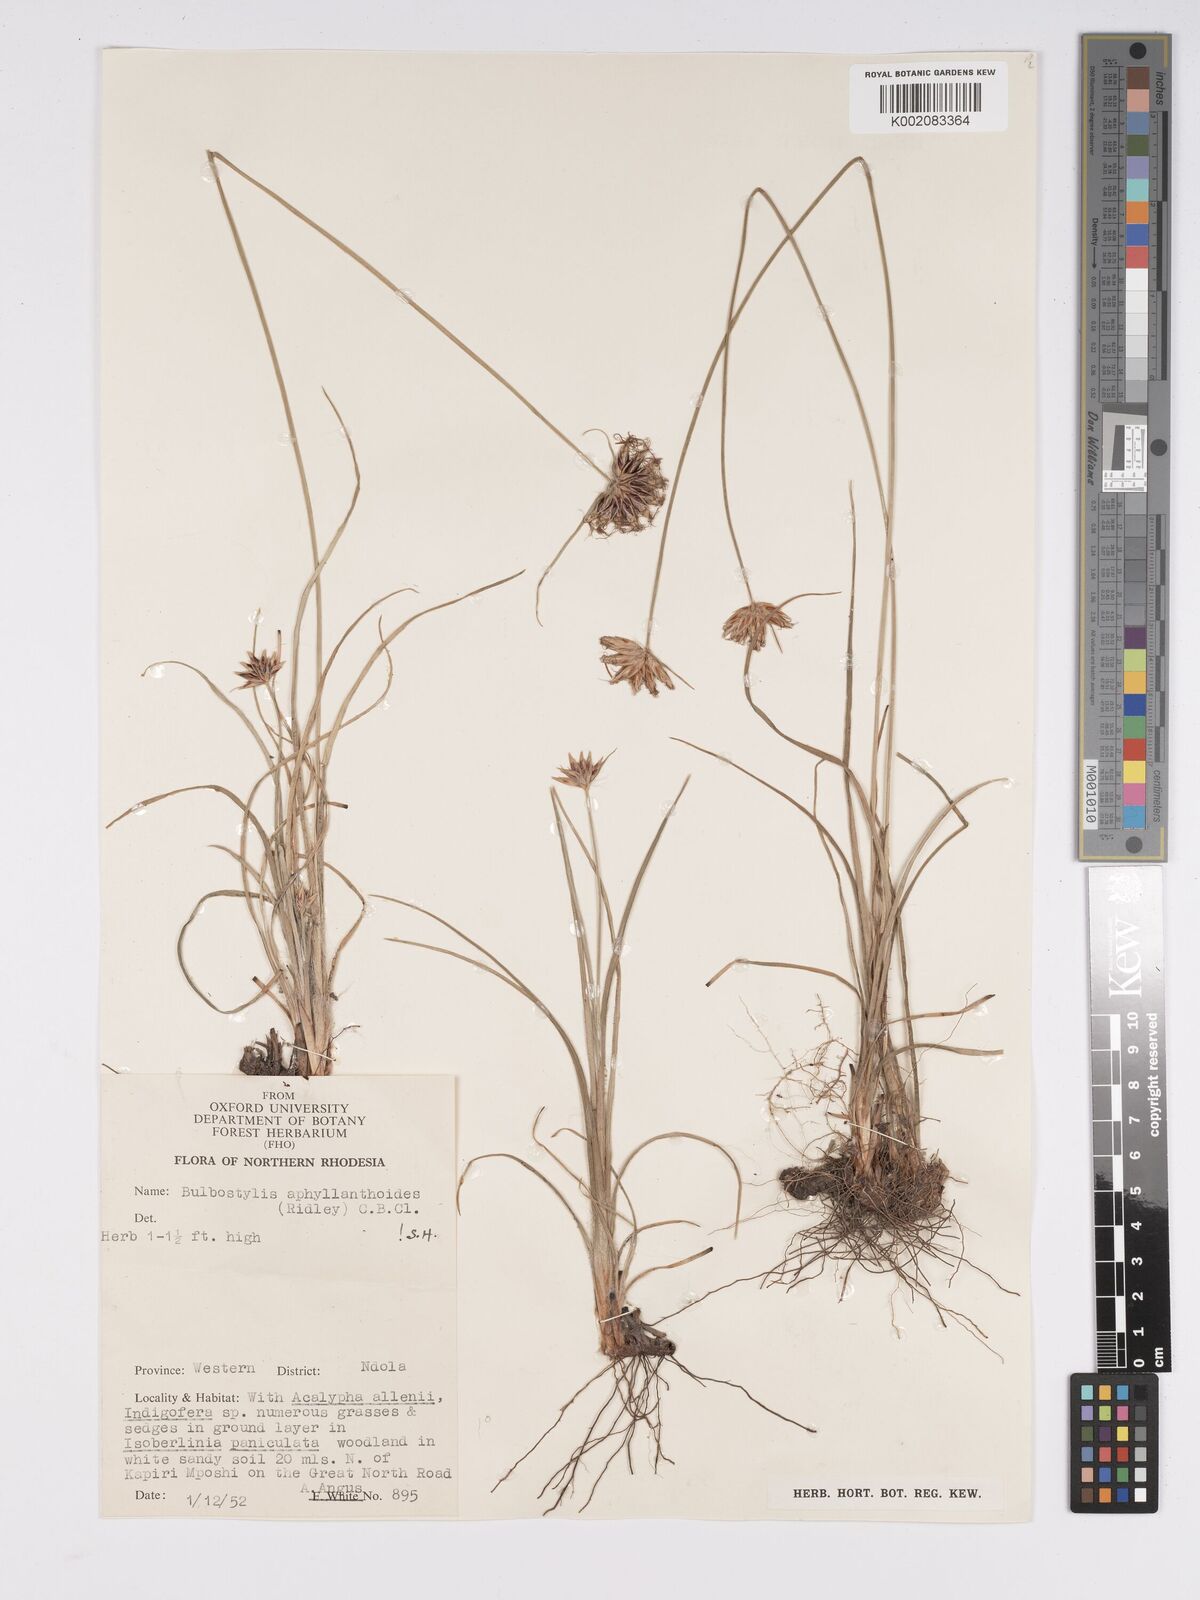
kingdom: Plantae
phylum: Tracheophyta
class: Liliopsida
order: Poales
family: Cyperaceae
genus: Bulbostylis
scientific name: Bulbostylis pilosa
